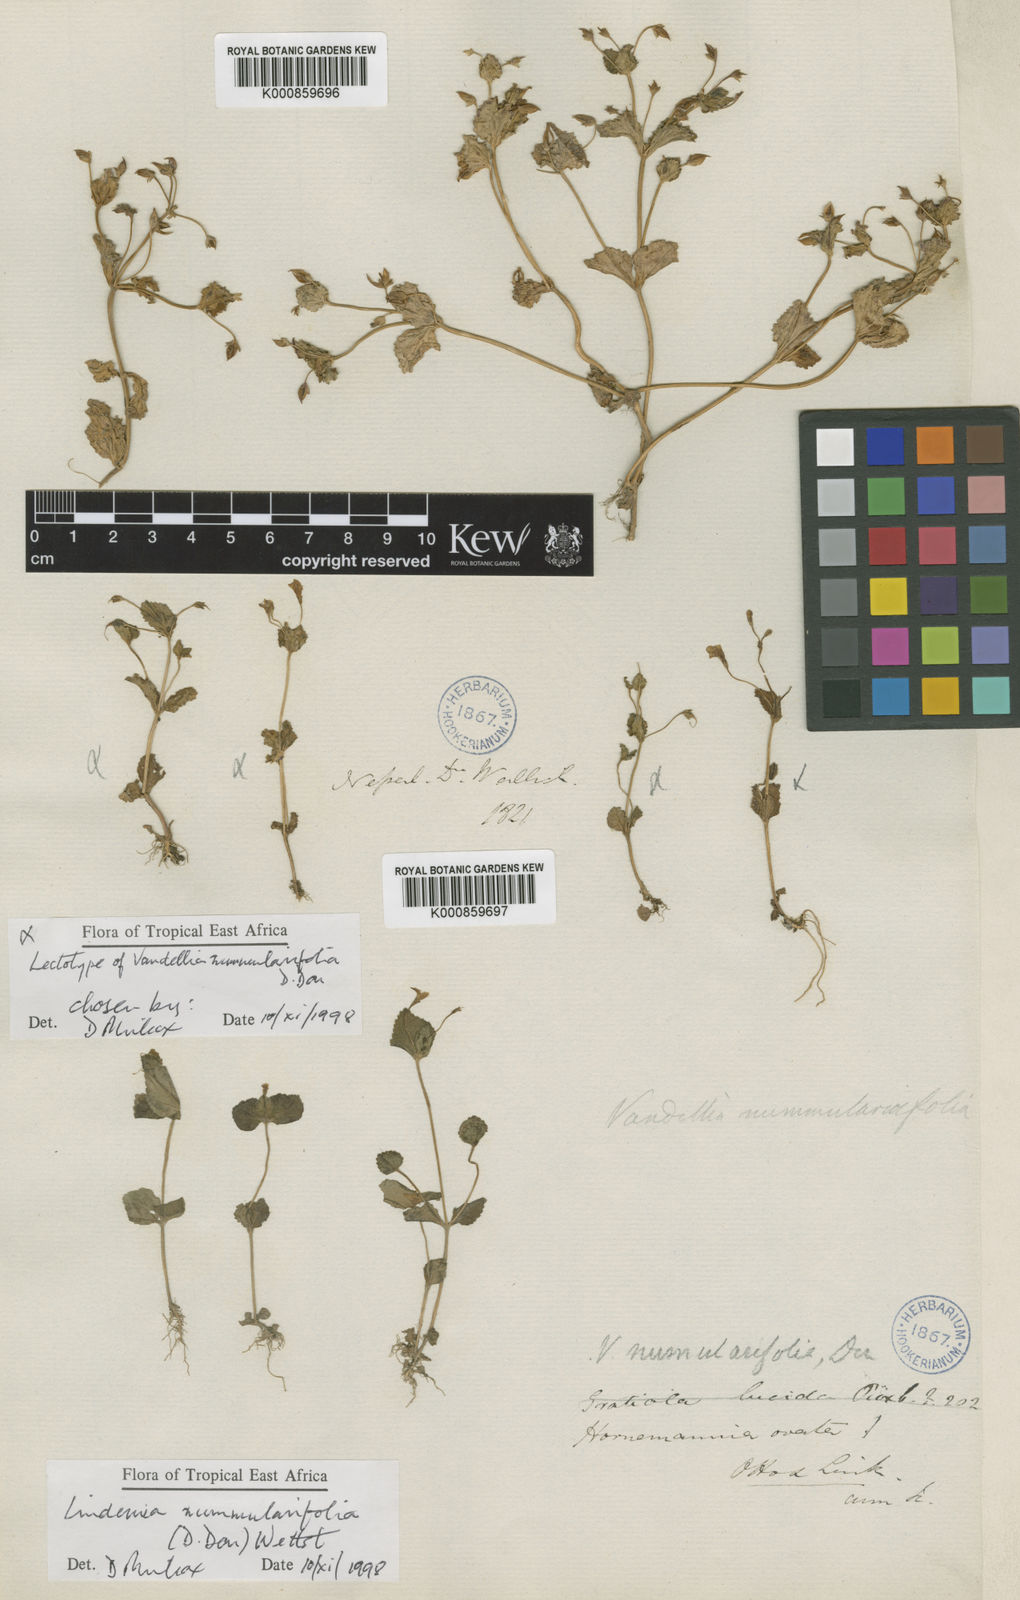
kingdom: Plantae
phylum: Tracheophyta
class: Magnoliopsida
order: Lamiales
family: Linderniaceae
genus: Craterostigma
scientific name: Craterostigma nummulariifolium
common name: False pimpernel
